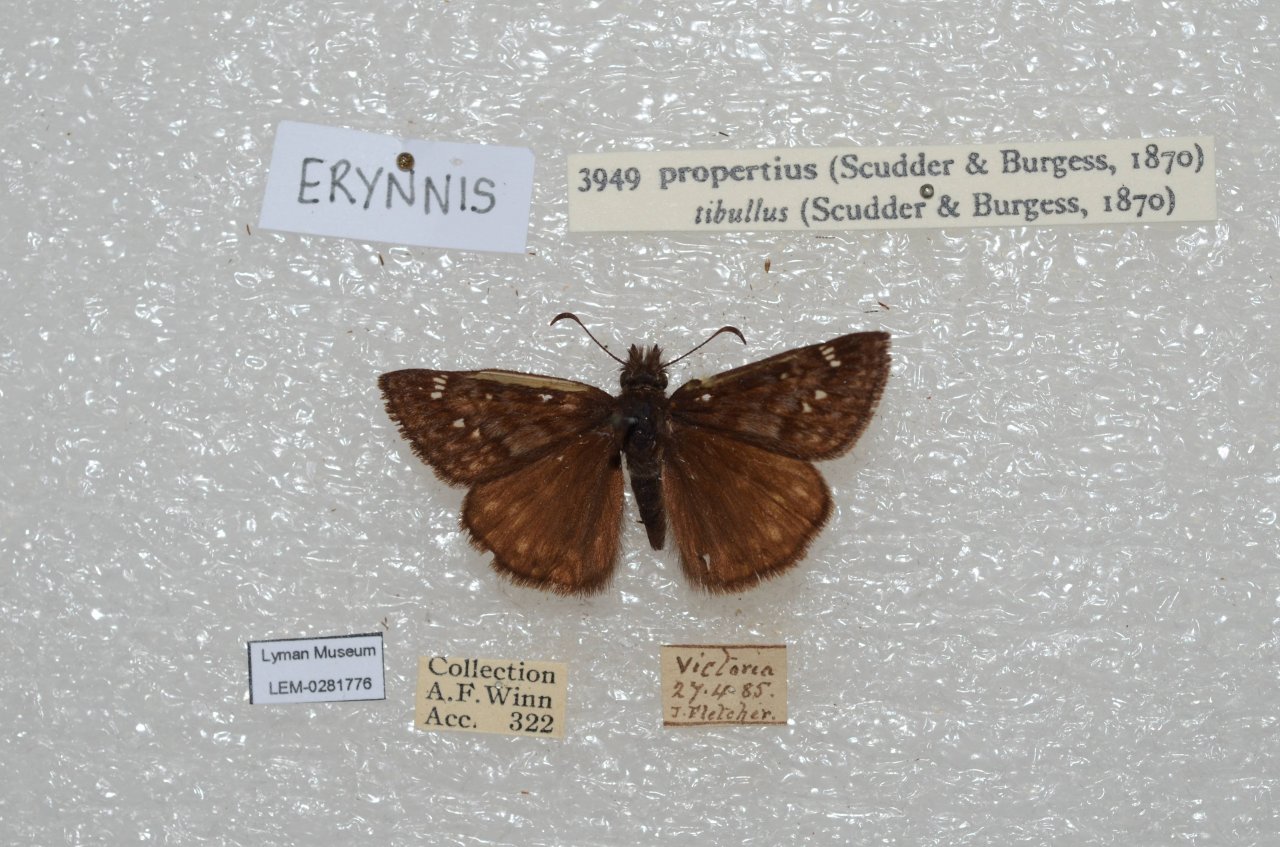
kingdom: Animalia
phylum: Arthropoda
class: Insecta
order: Lepidoptera
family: Hesperiidae
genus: Erynnis
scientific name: Erynnis propertius
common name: Propertius Duskywing
